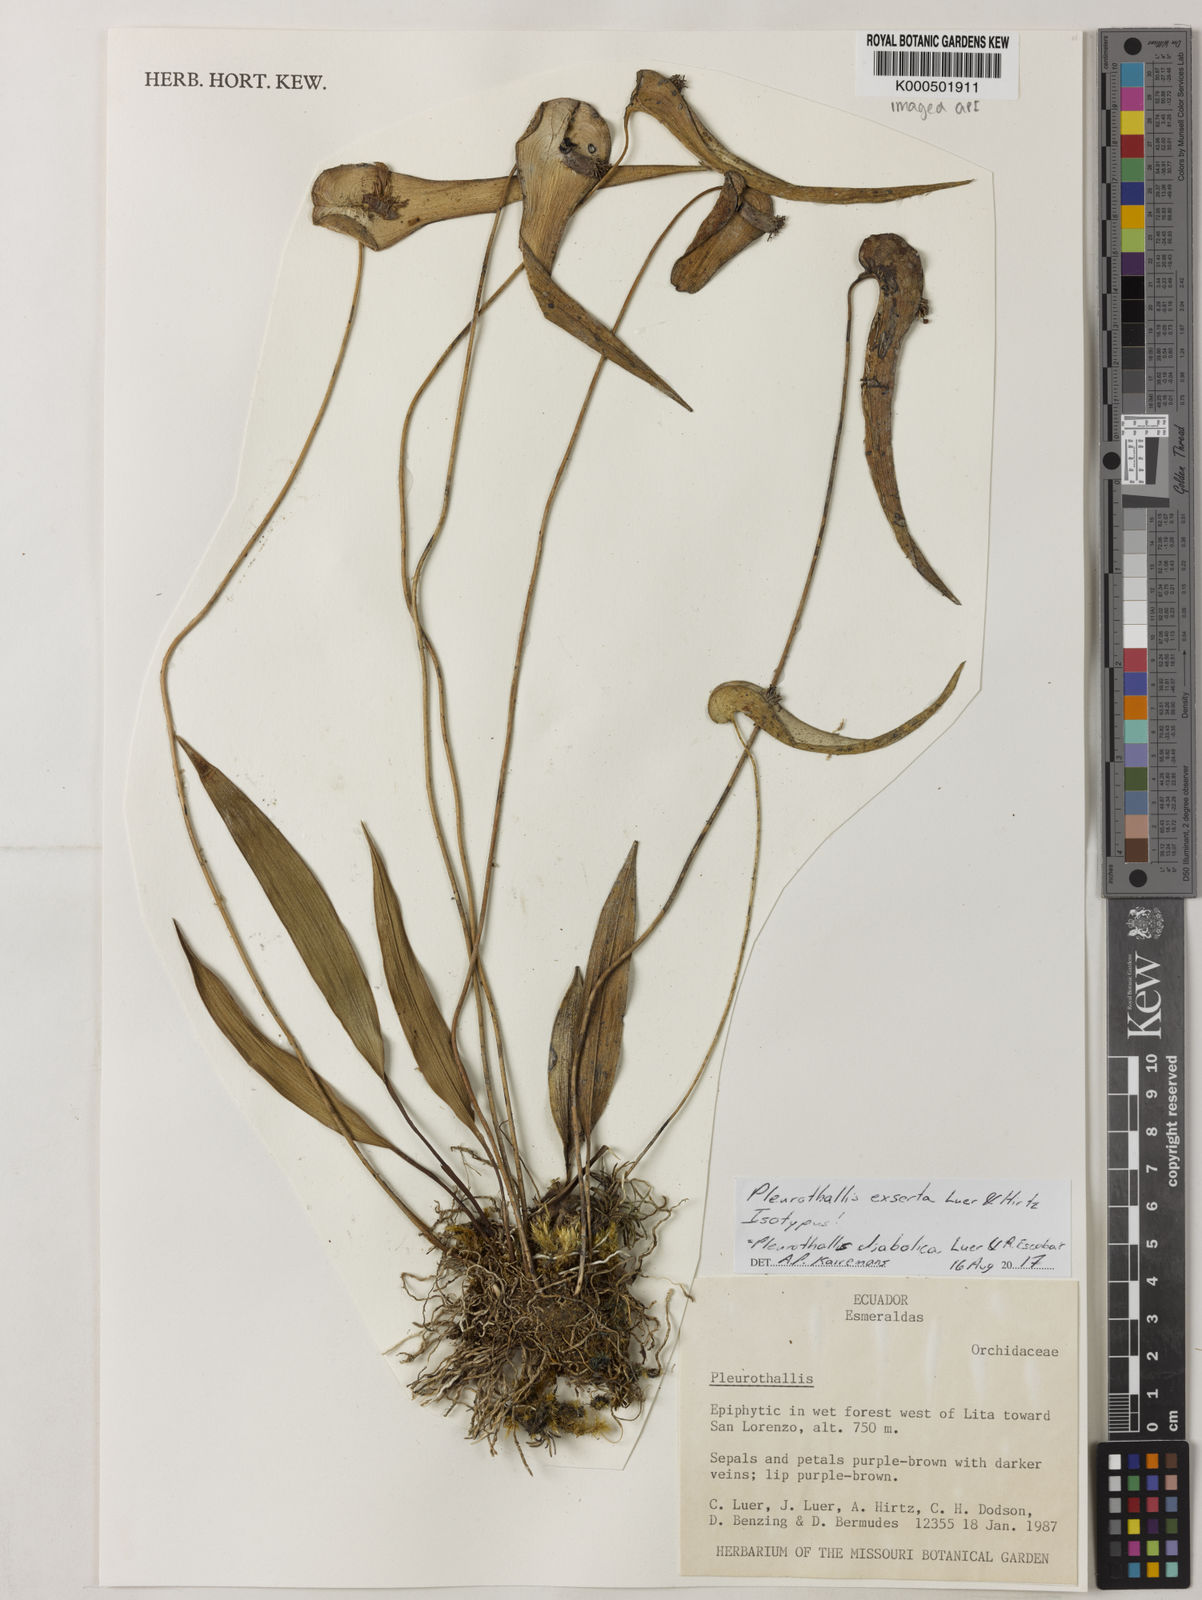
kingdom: Plantae
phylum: Tracheophyta
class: Liliopsida
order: Asparagales
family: Orchidaceae
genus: Pleurothallis
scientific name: Pleurothallis diabolica
